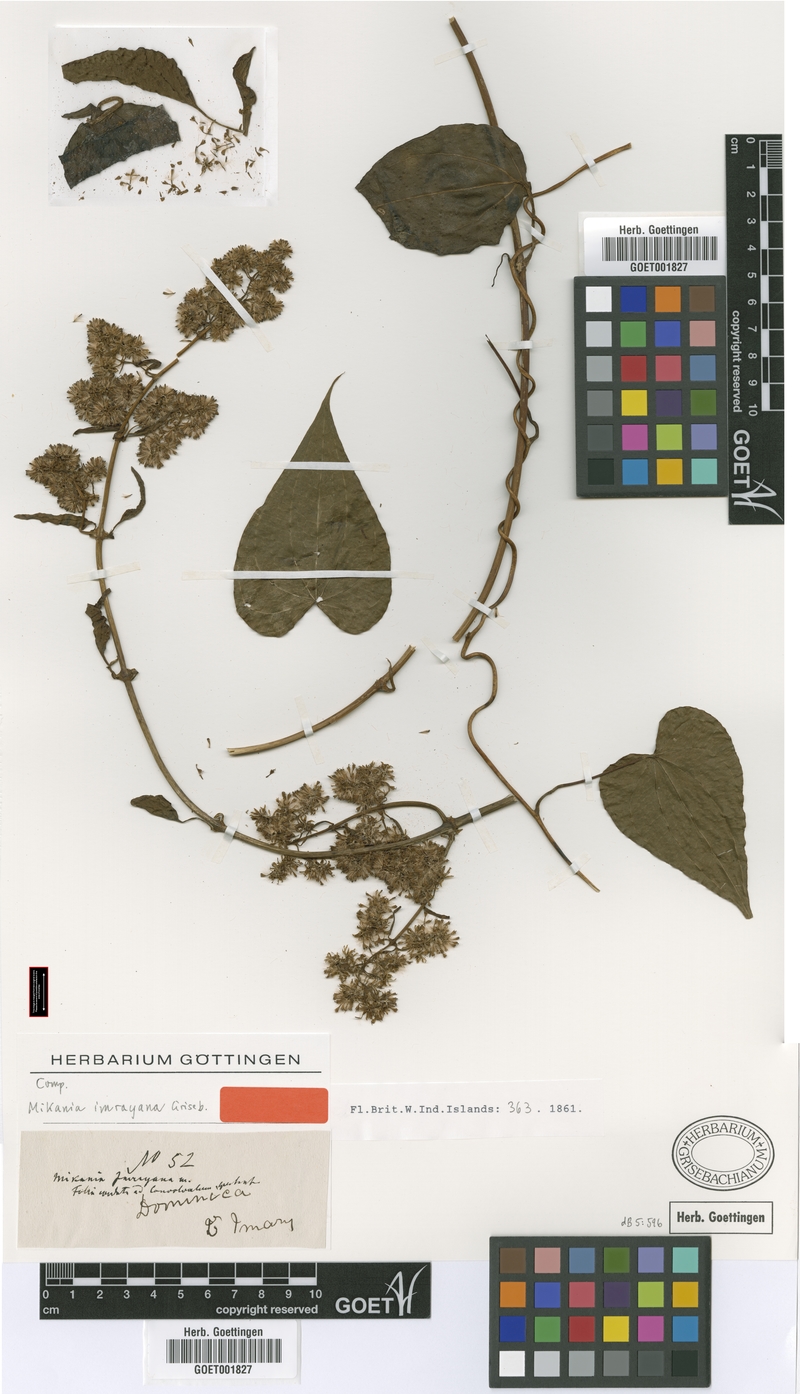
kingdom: Plantae
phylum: Tracheophyta
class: Magnoliopsida
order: Asterales
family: Asteraceae
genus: Mikania
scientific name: Mikania hookeriana
